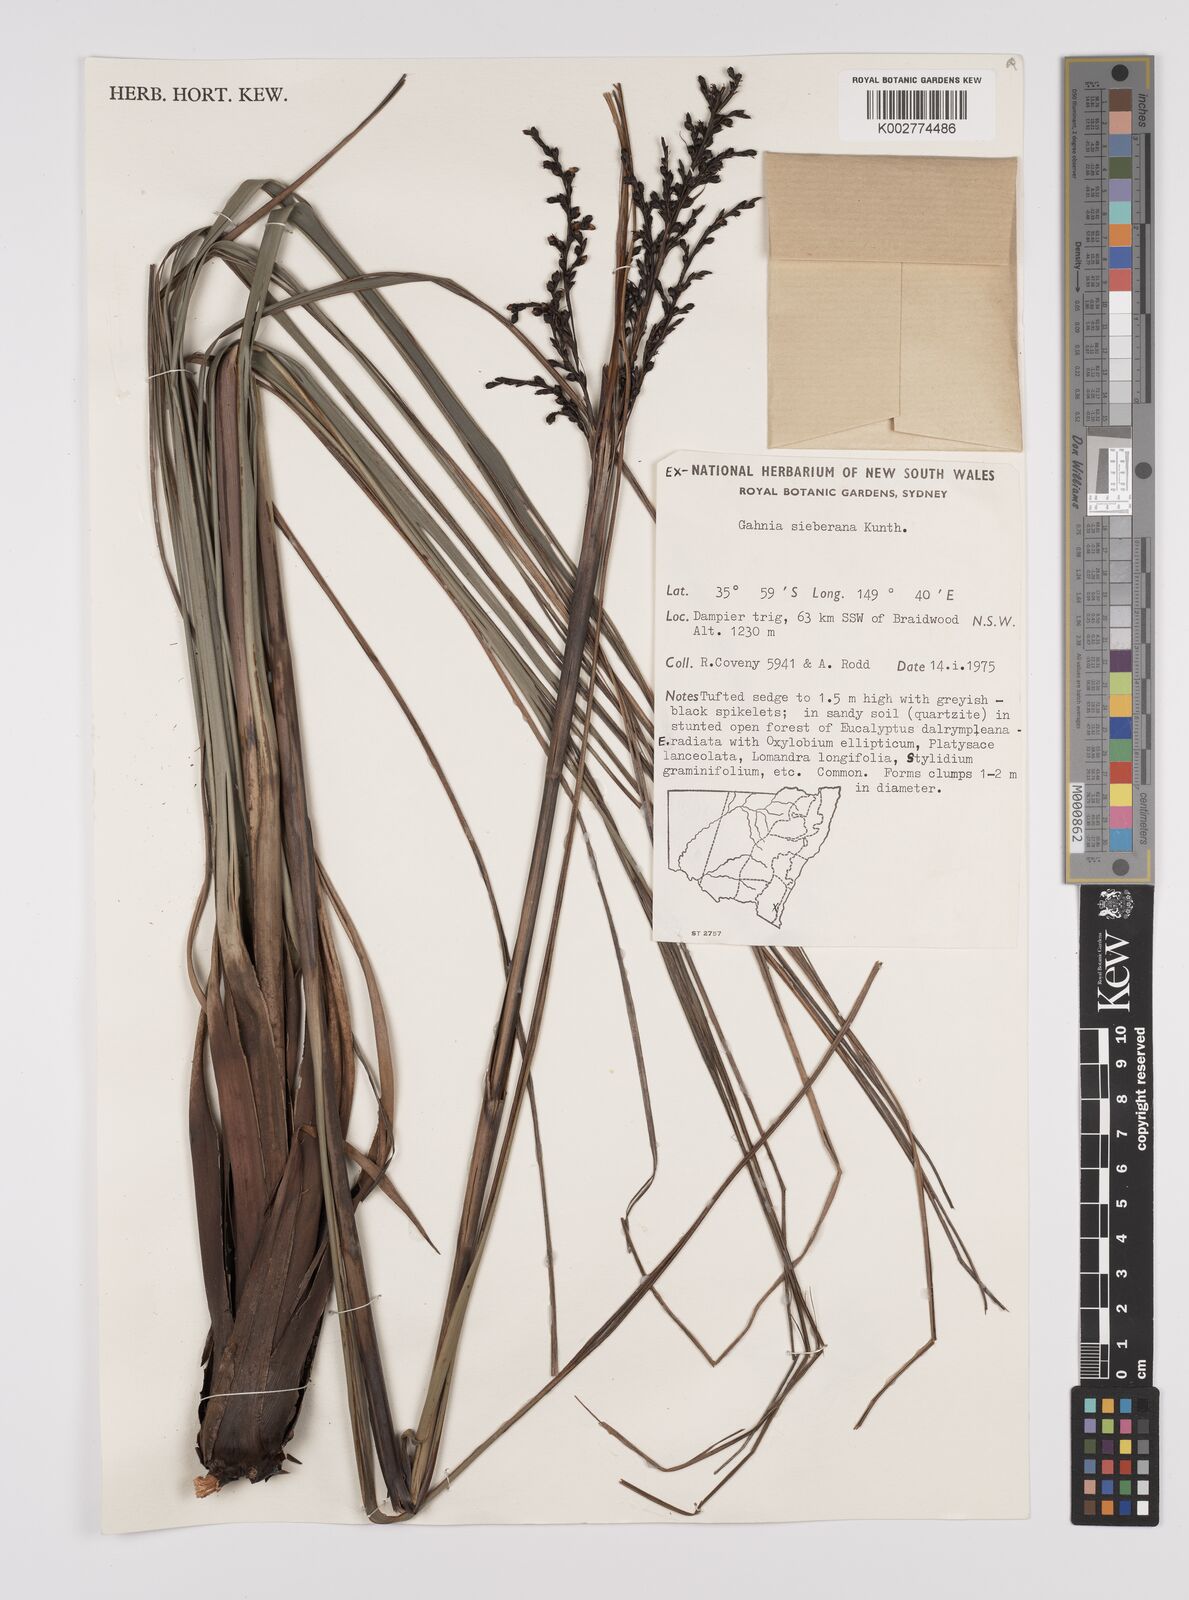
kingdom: Plantae
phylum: Tracheophyta
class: Liliopsida
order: Poales
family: Cyperaceae
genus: Gahnia
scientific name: Gahnia sieberiana
